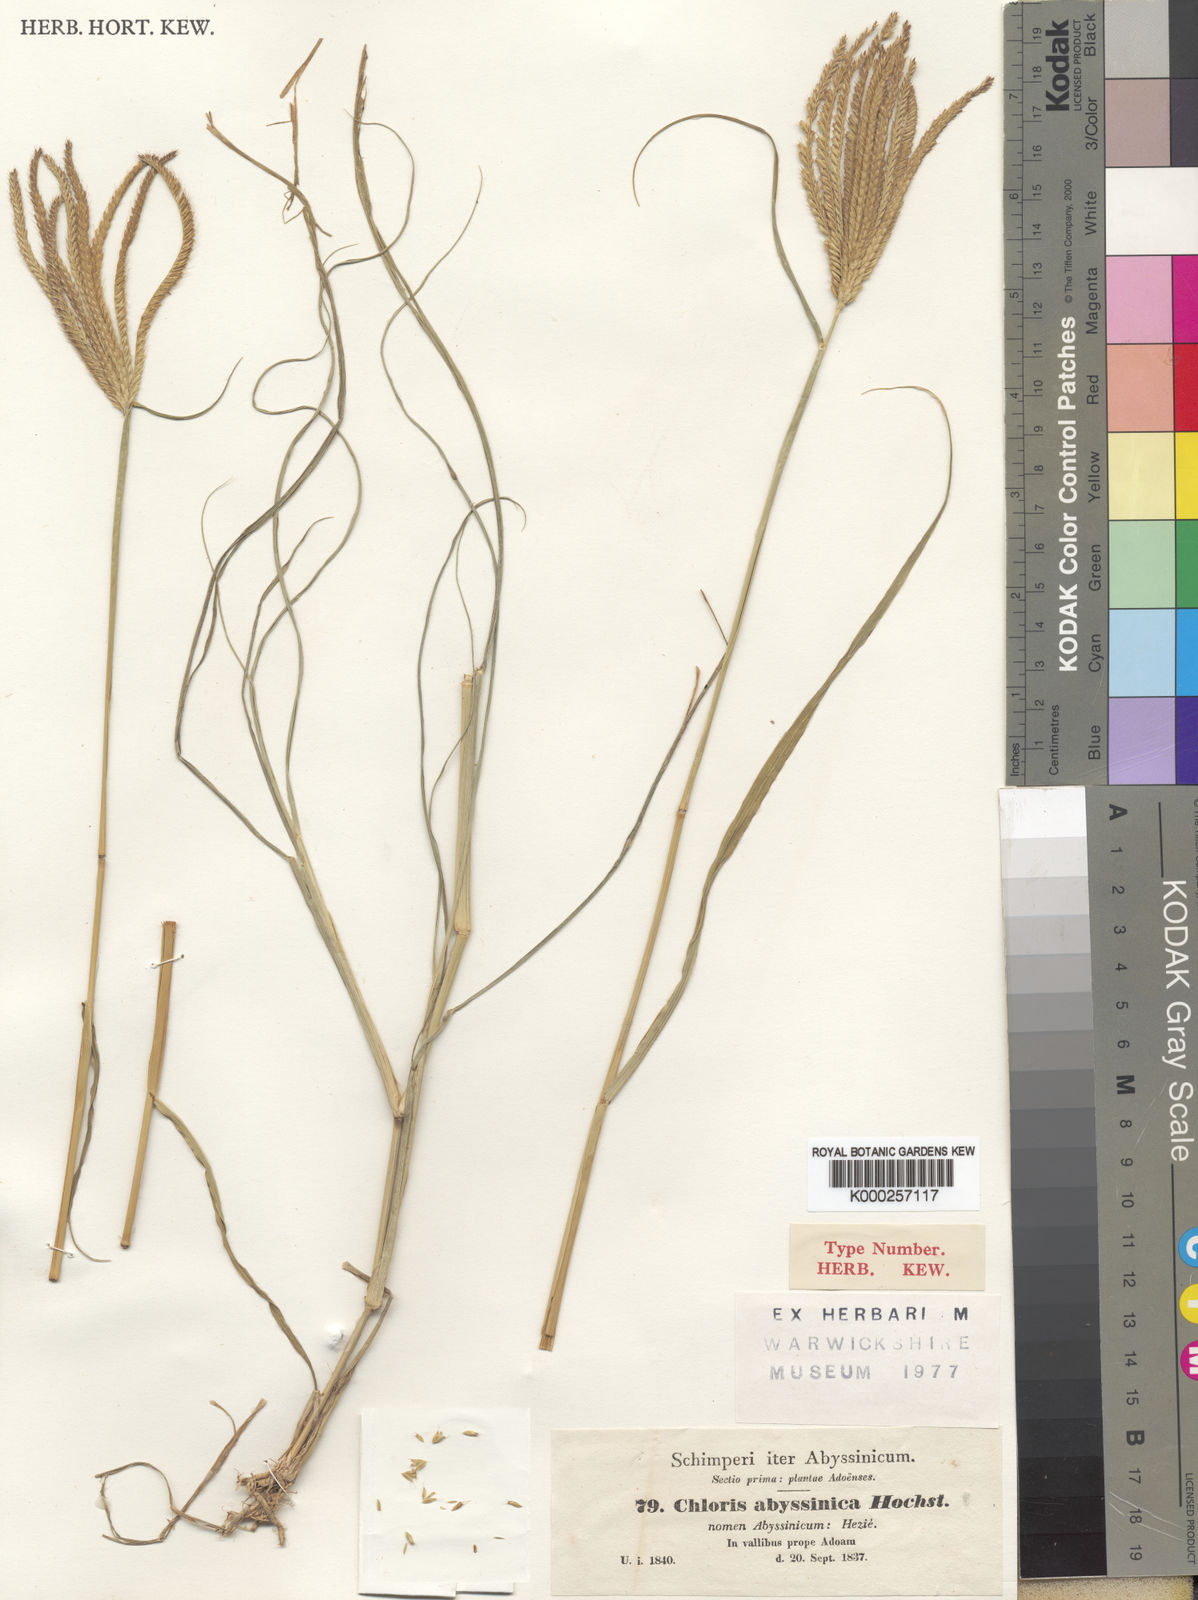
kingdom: Plantae
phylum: Tracheophyta
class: Liliopsida
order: Poales
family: Poaceae
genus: Chloris
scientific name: Chloris gayana
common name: Rhodes grass
